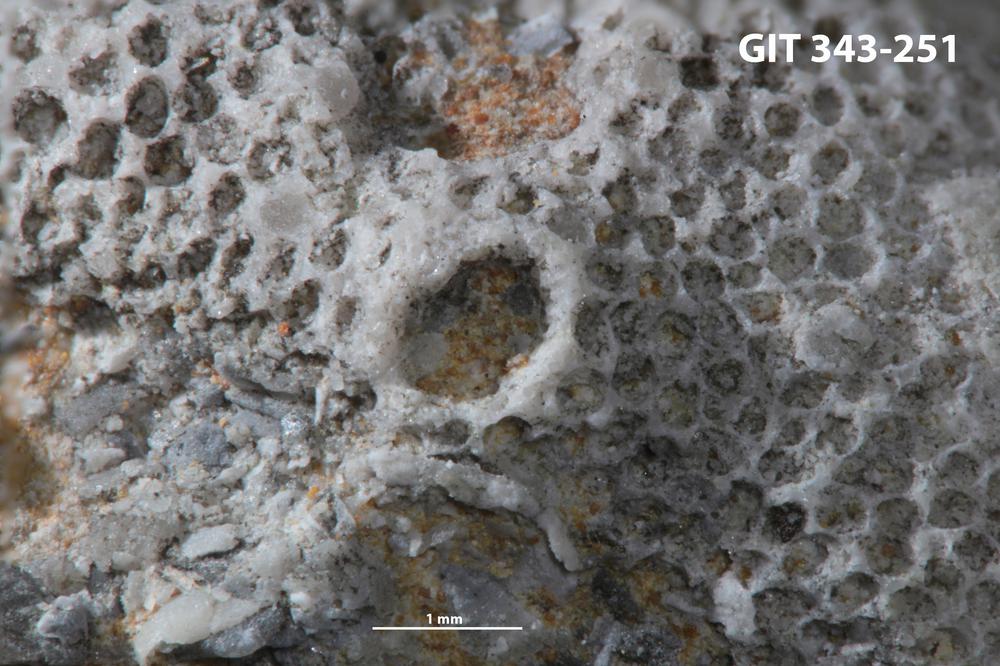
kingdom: Animalia
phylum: Bryozoa
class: Stenolaemata
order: Trepostomatida
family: Monticuliporidae
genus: Mesotrypa
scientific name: Mesotrypa excentrica
